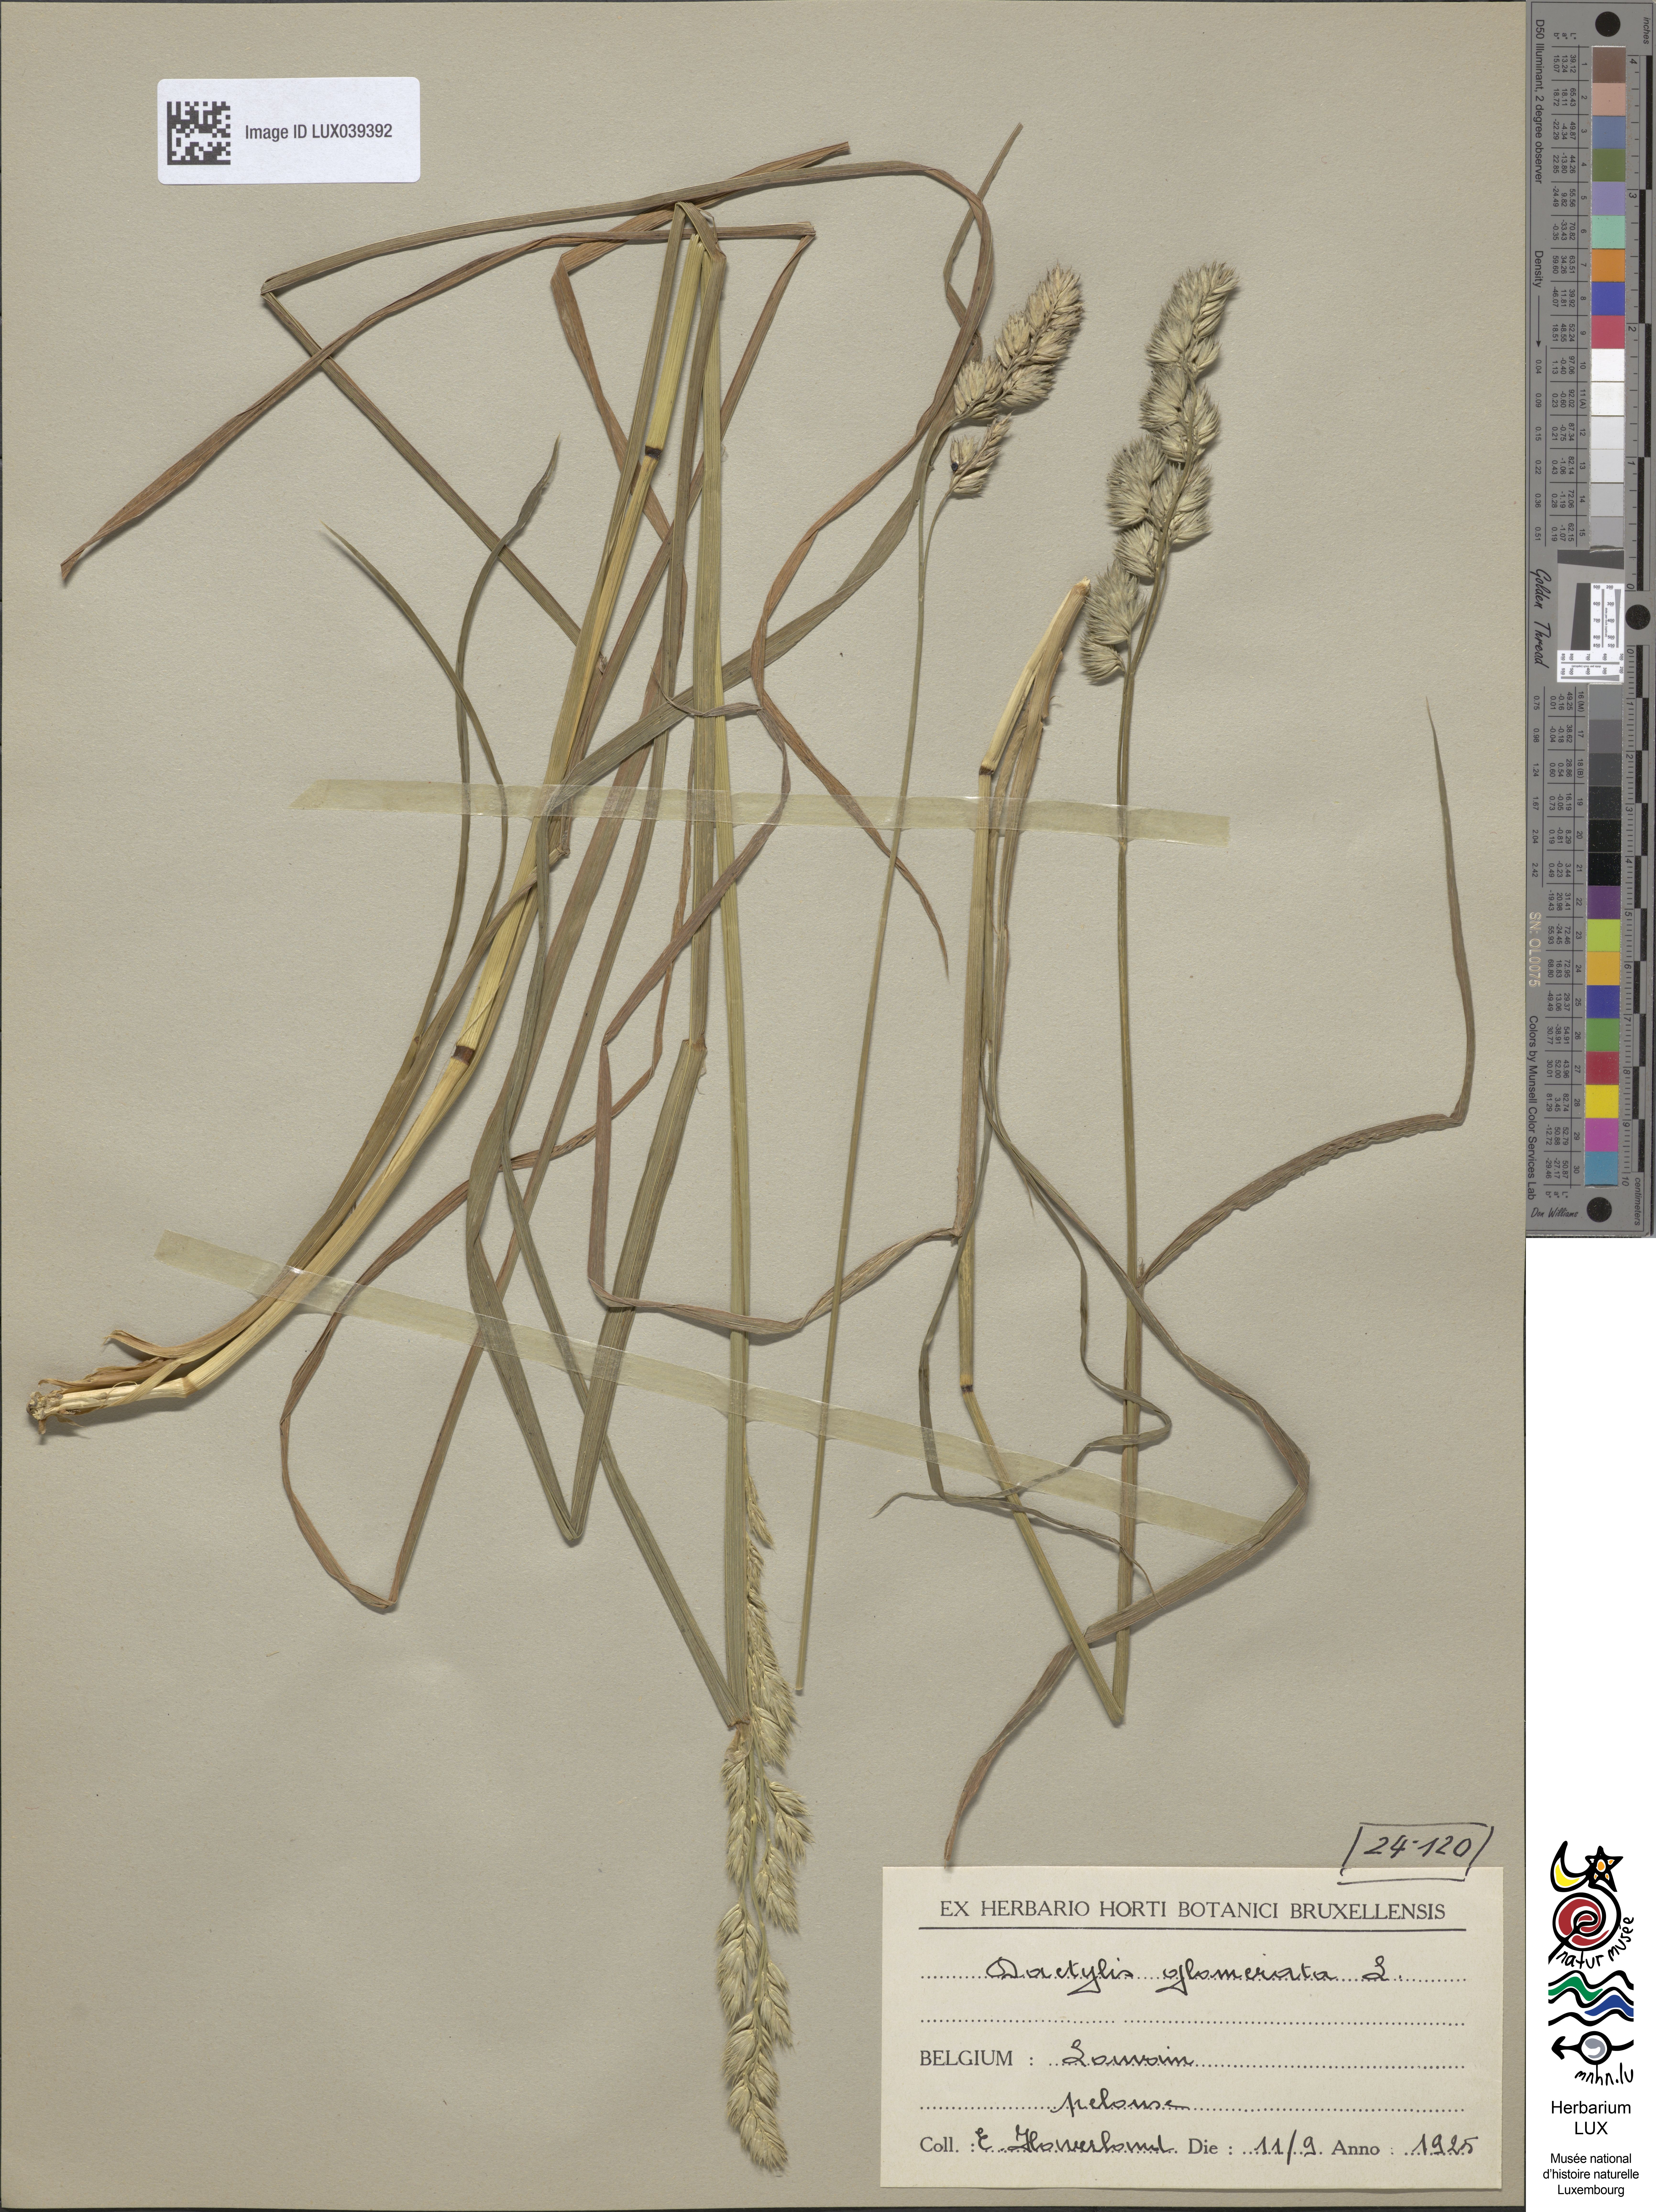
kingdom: Plantae
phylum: Tracheophyta
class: Liliopsida
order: Poales
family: Poaceae
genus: Dactylis
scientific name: Dactylis glomerata
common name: Orchardgrass
